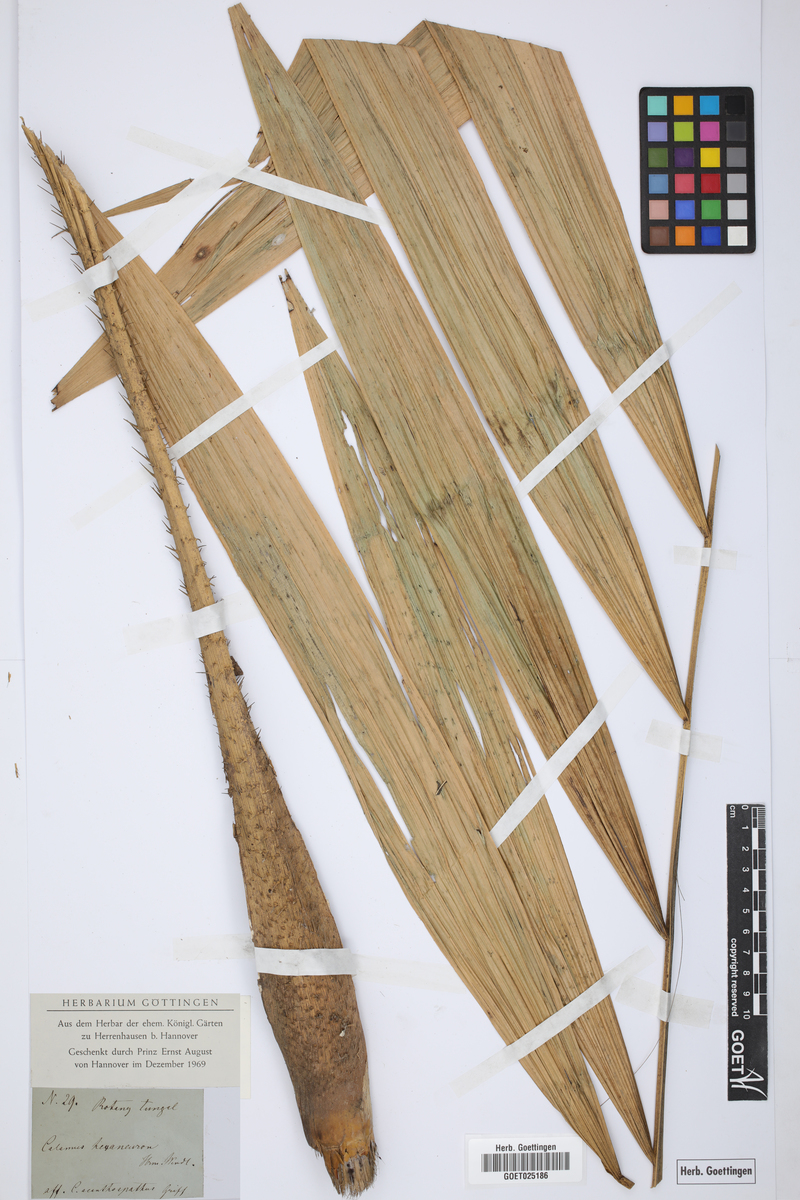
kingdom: Plantae
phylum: Tracheophyta
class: Liliopsida
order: Arecales
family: Arecaceae
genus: Calamus
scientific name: Calamus
